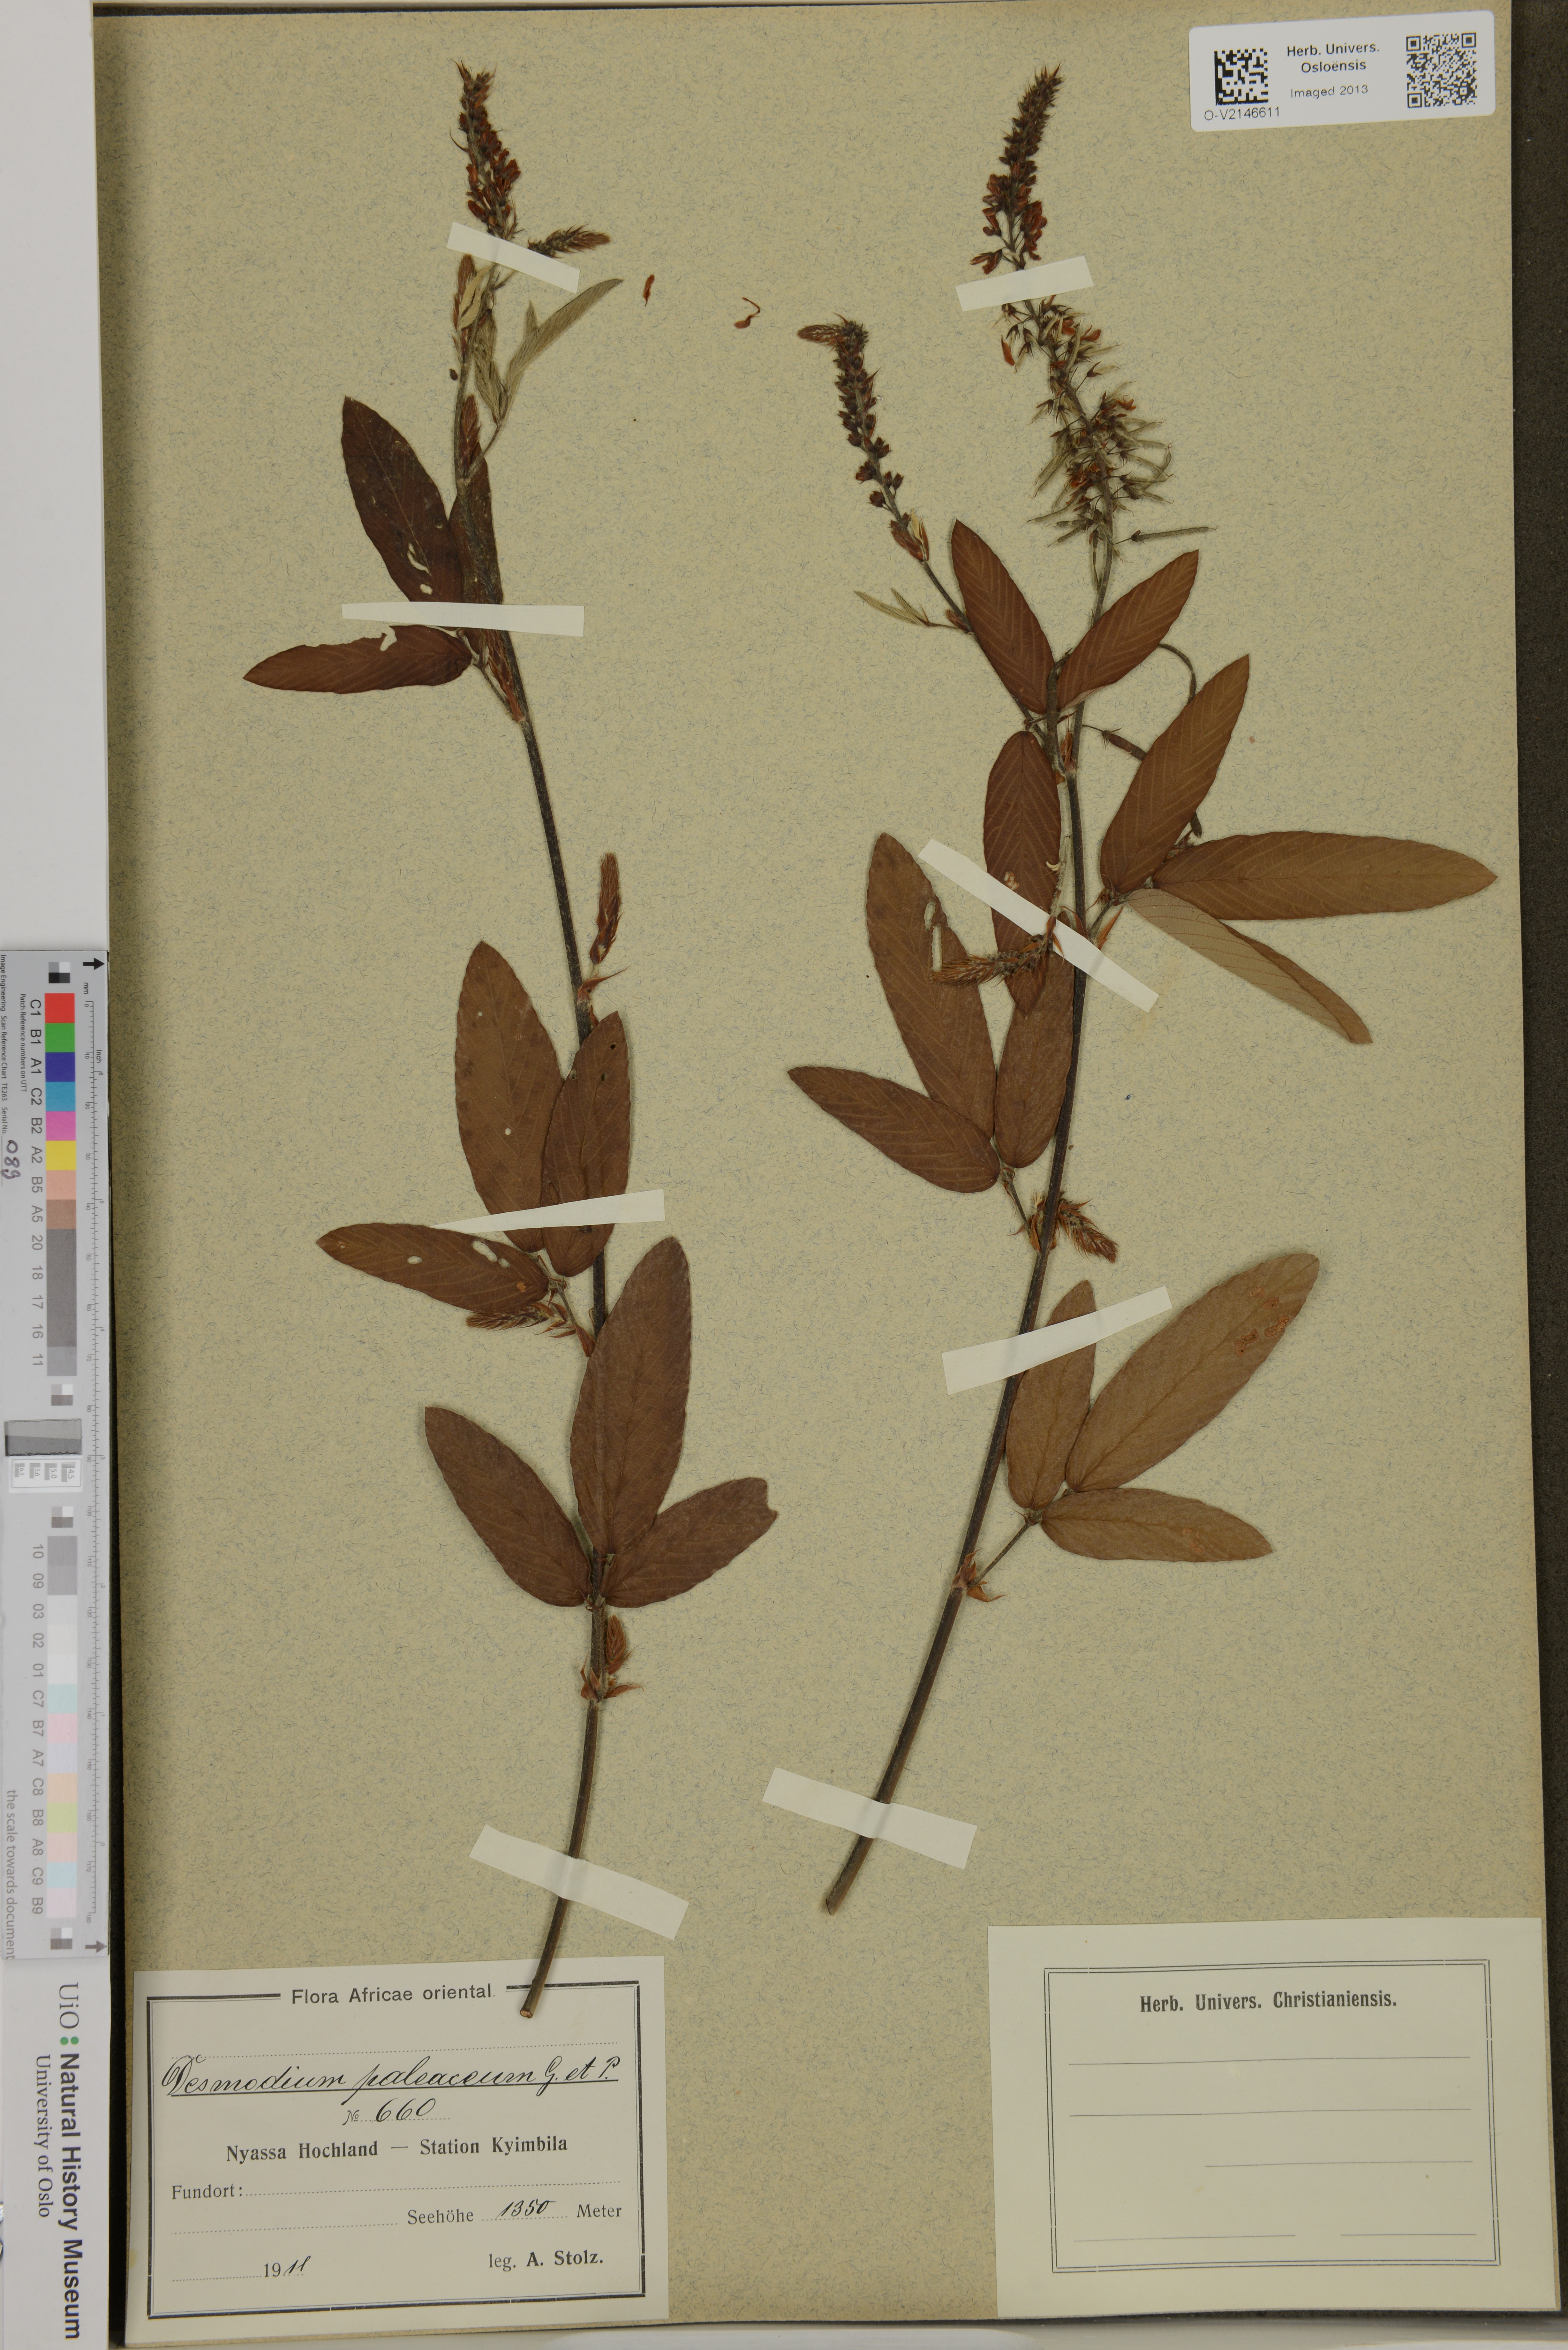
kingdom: Plantae
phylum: Tracheophyta
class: Magnoliopsida
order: Fabales
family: Fabaceae
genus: Pleurolobus
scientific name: Pleurolobus salicifolius
